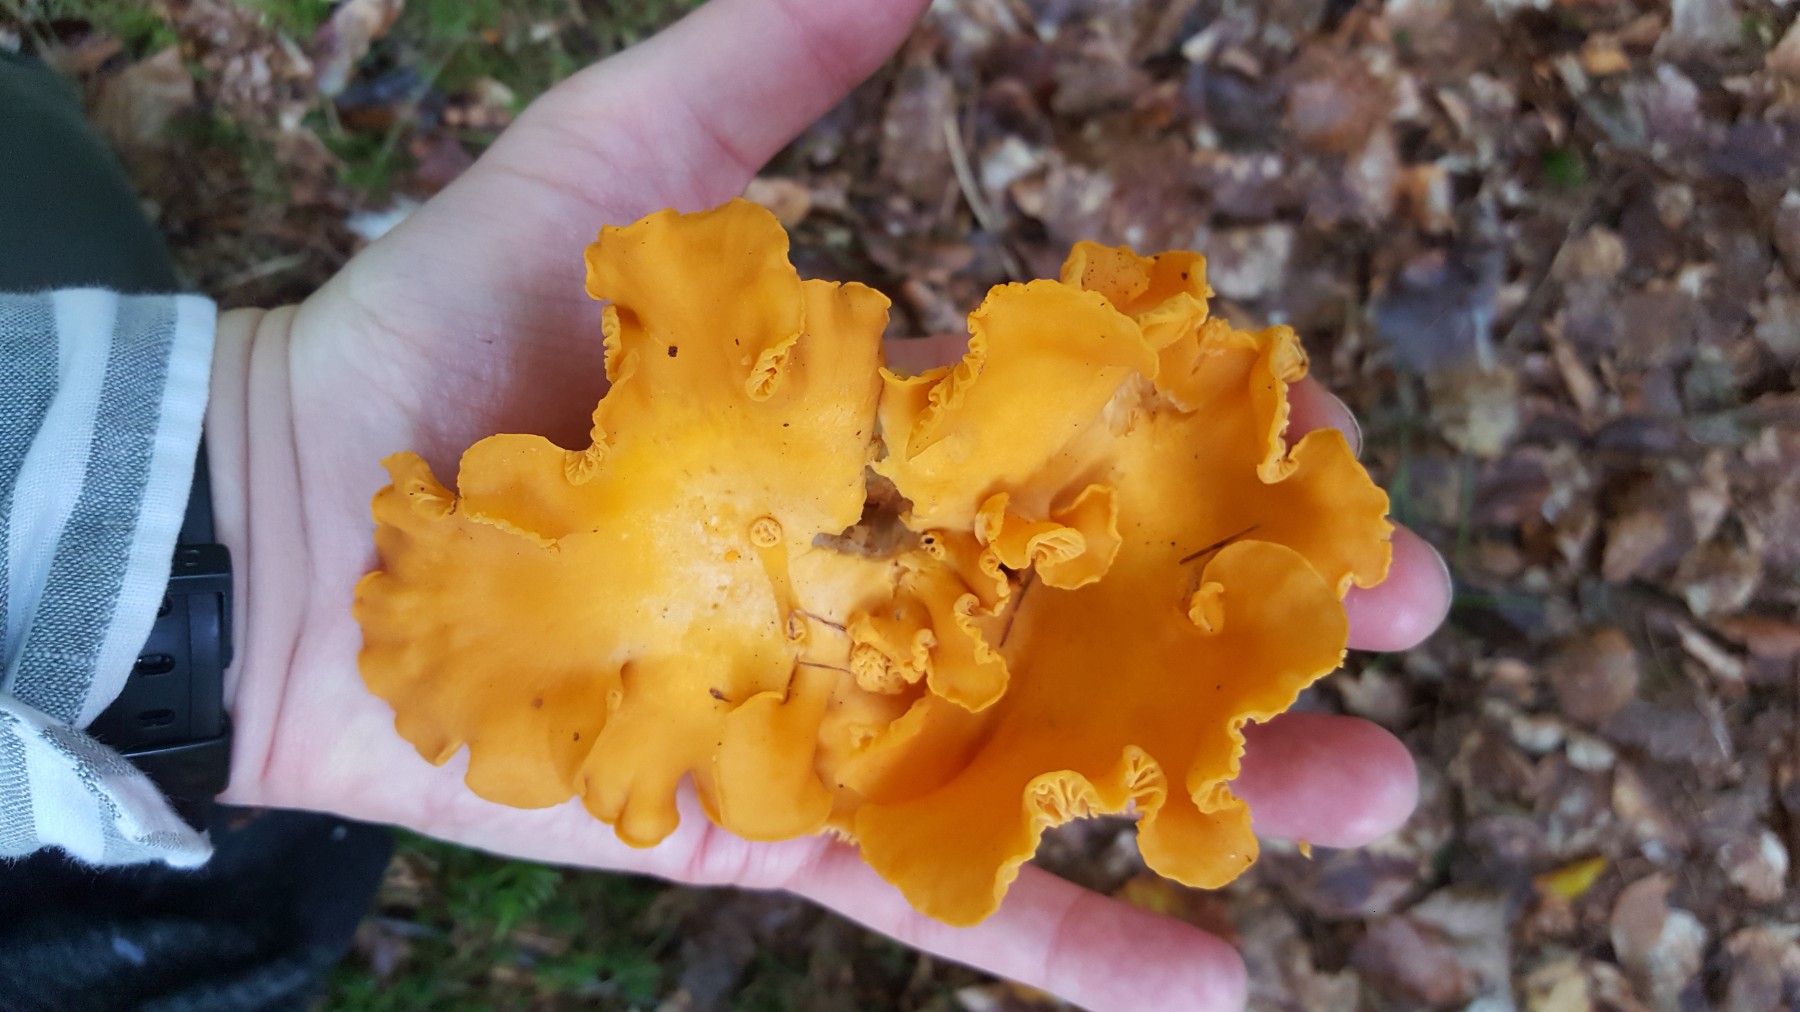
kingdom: Fungi
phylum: Basidiomycota
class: Agaricomycetes
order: Cantharellales
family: Hydnaceae
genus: Cantharellus
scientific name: Cantharellus cibarius
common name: almindelig kantarel
